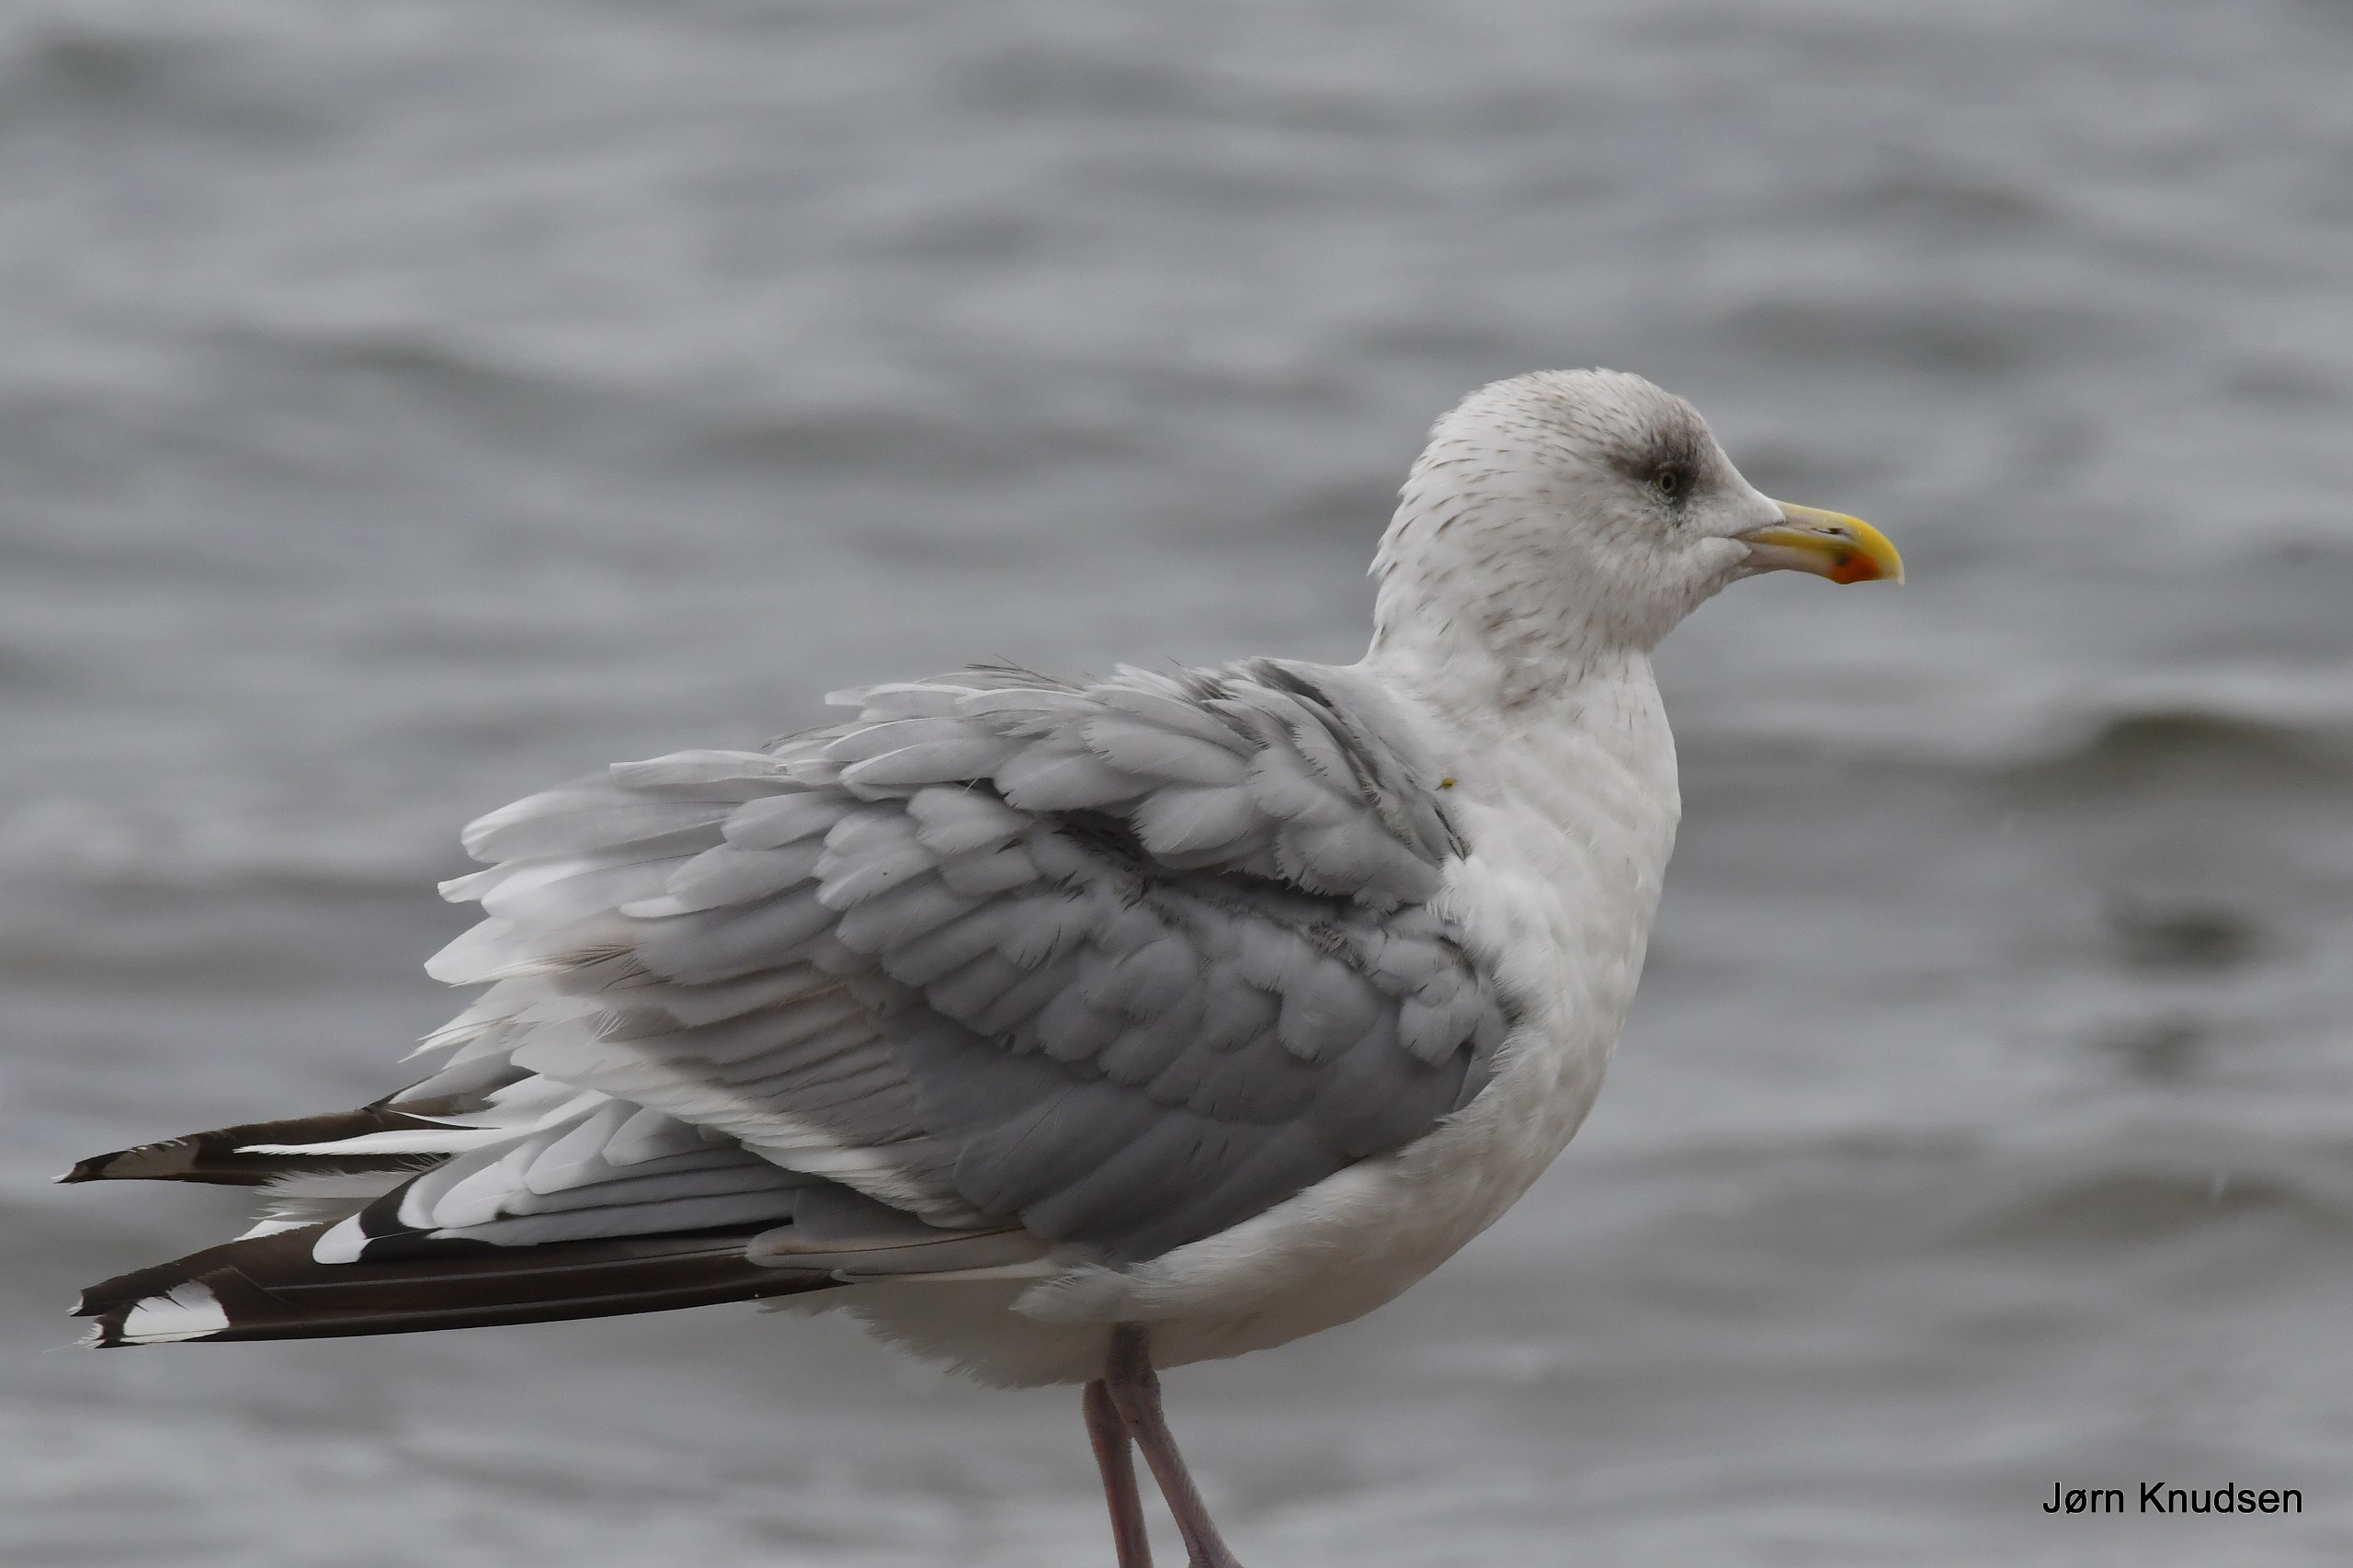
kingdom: Animalia
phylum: Chordata
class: Aves
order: Charadriiformes
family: Laridae
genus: Larus
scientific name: Larus argentatus
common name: Sølvmåge
